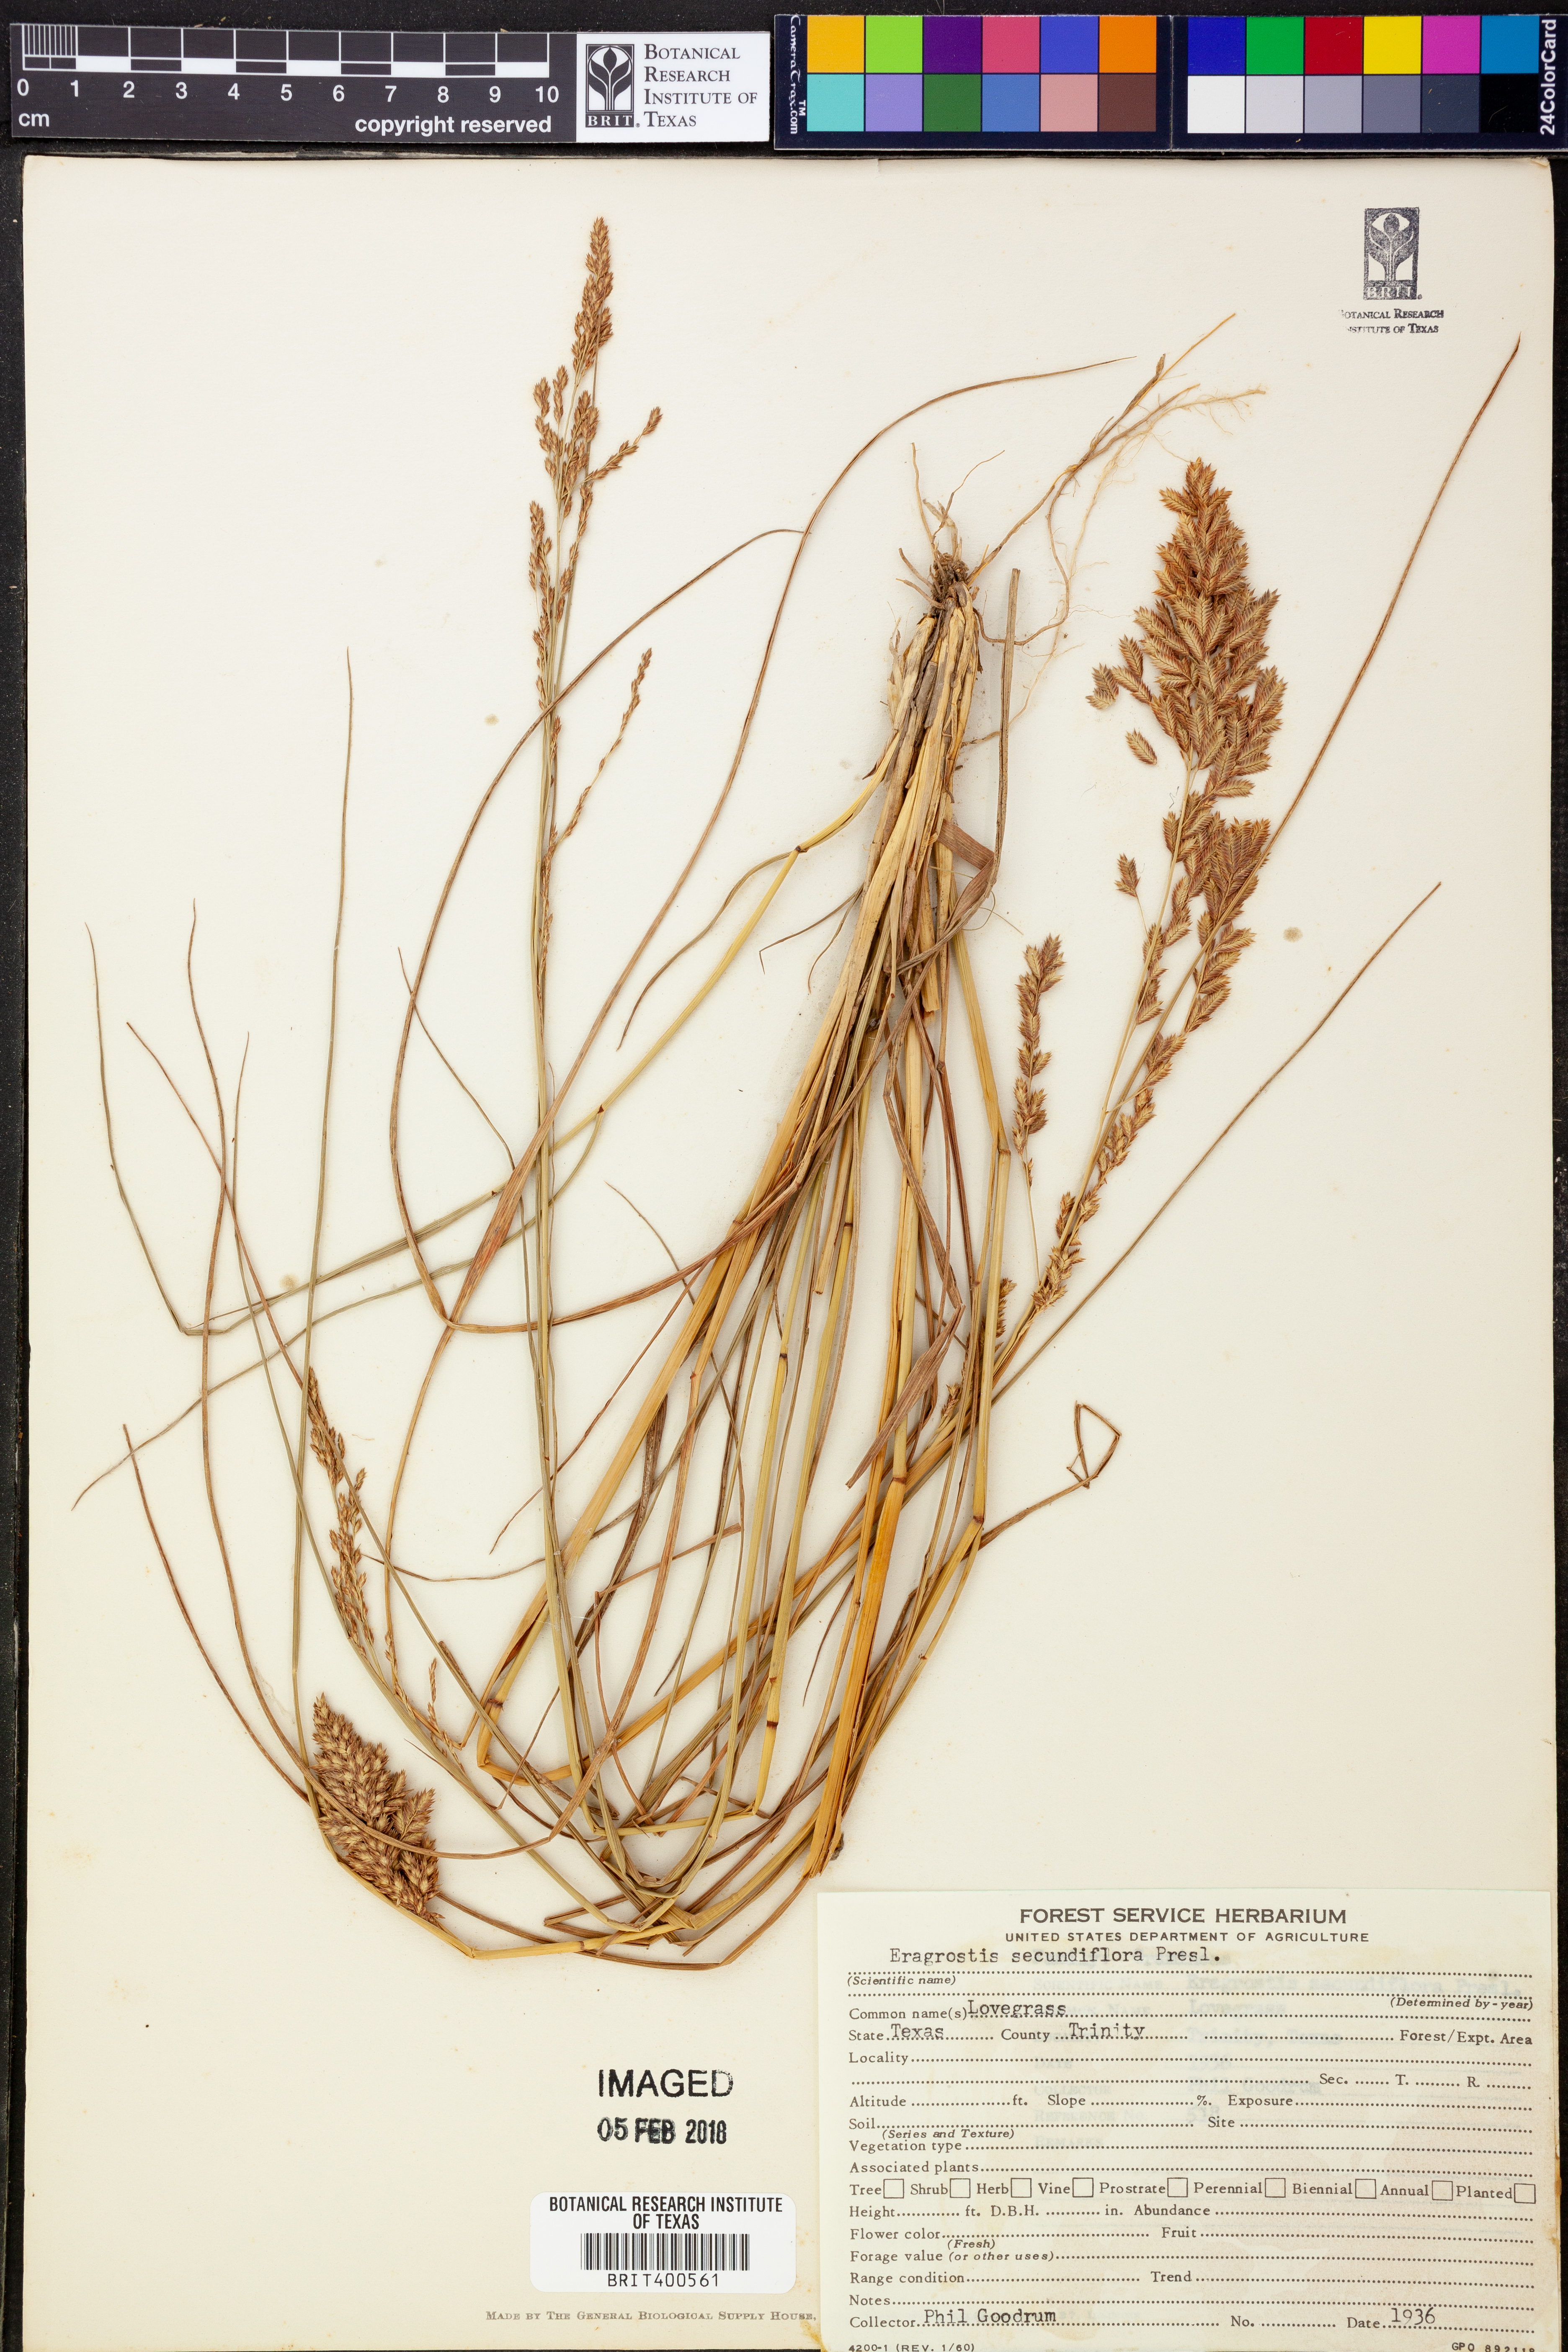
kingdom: Plantae
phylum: Tracheophyta
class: Liliopsida
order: Poales
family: Poaceae
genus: Eragrostis
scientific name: Eragrostis secundiflora
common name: Red love grass
